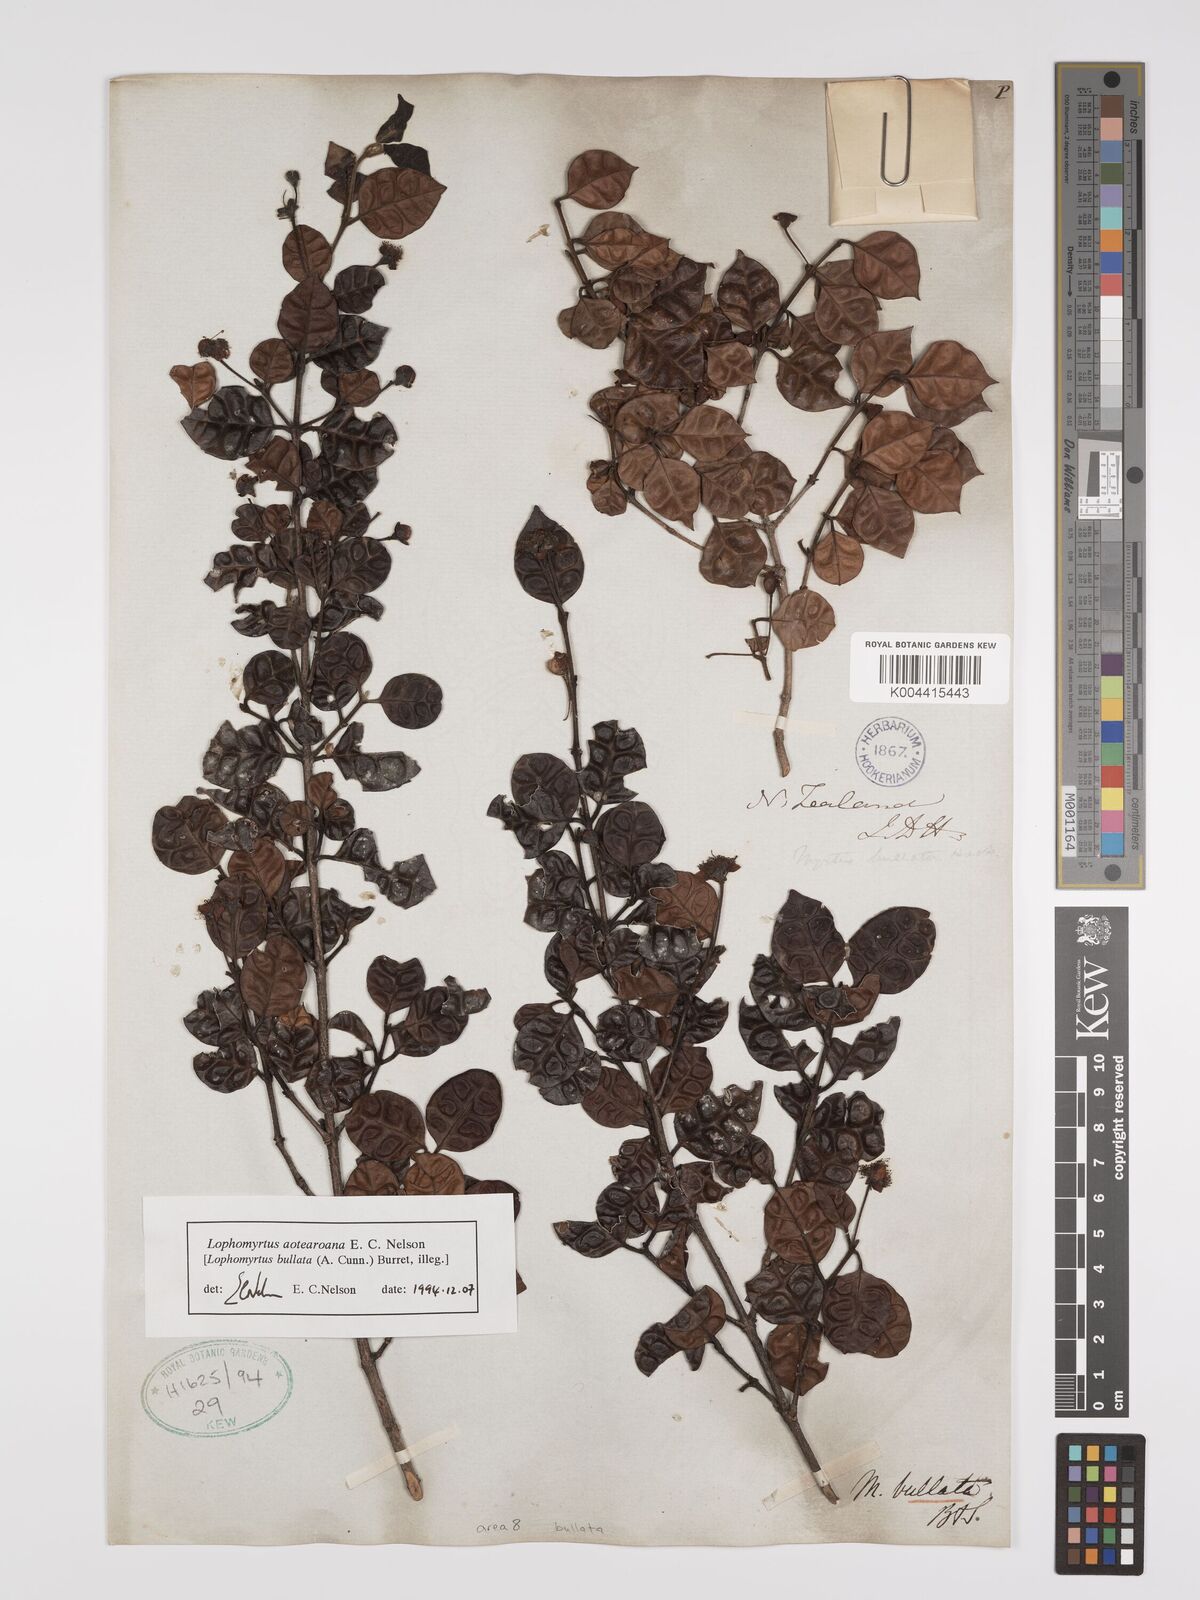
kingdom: Plantae
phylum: Tracheophyta
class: Magnoliopsida
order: Myrtales
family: Myrtaceae
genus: Lophomyrtus
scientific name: Lophomyrtus bullata
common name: Rama rama
